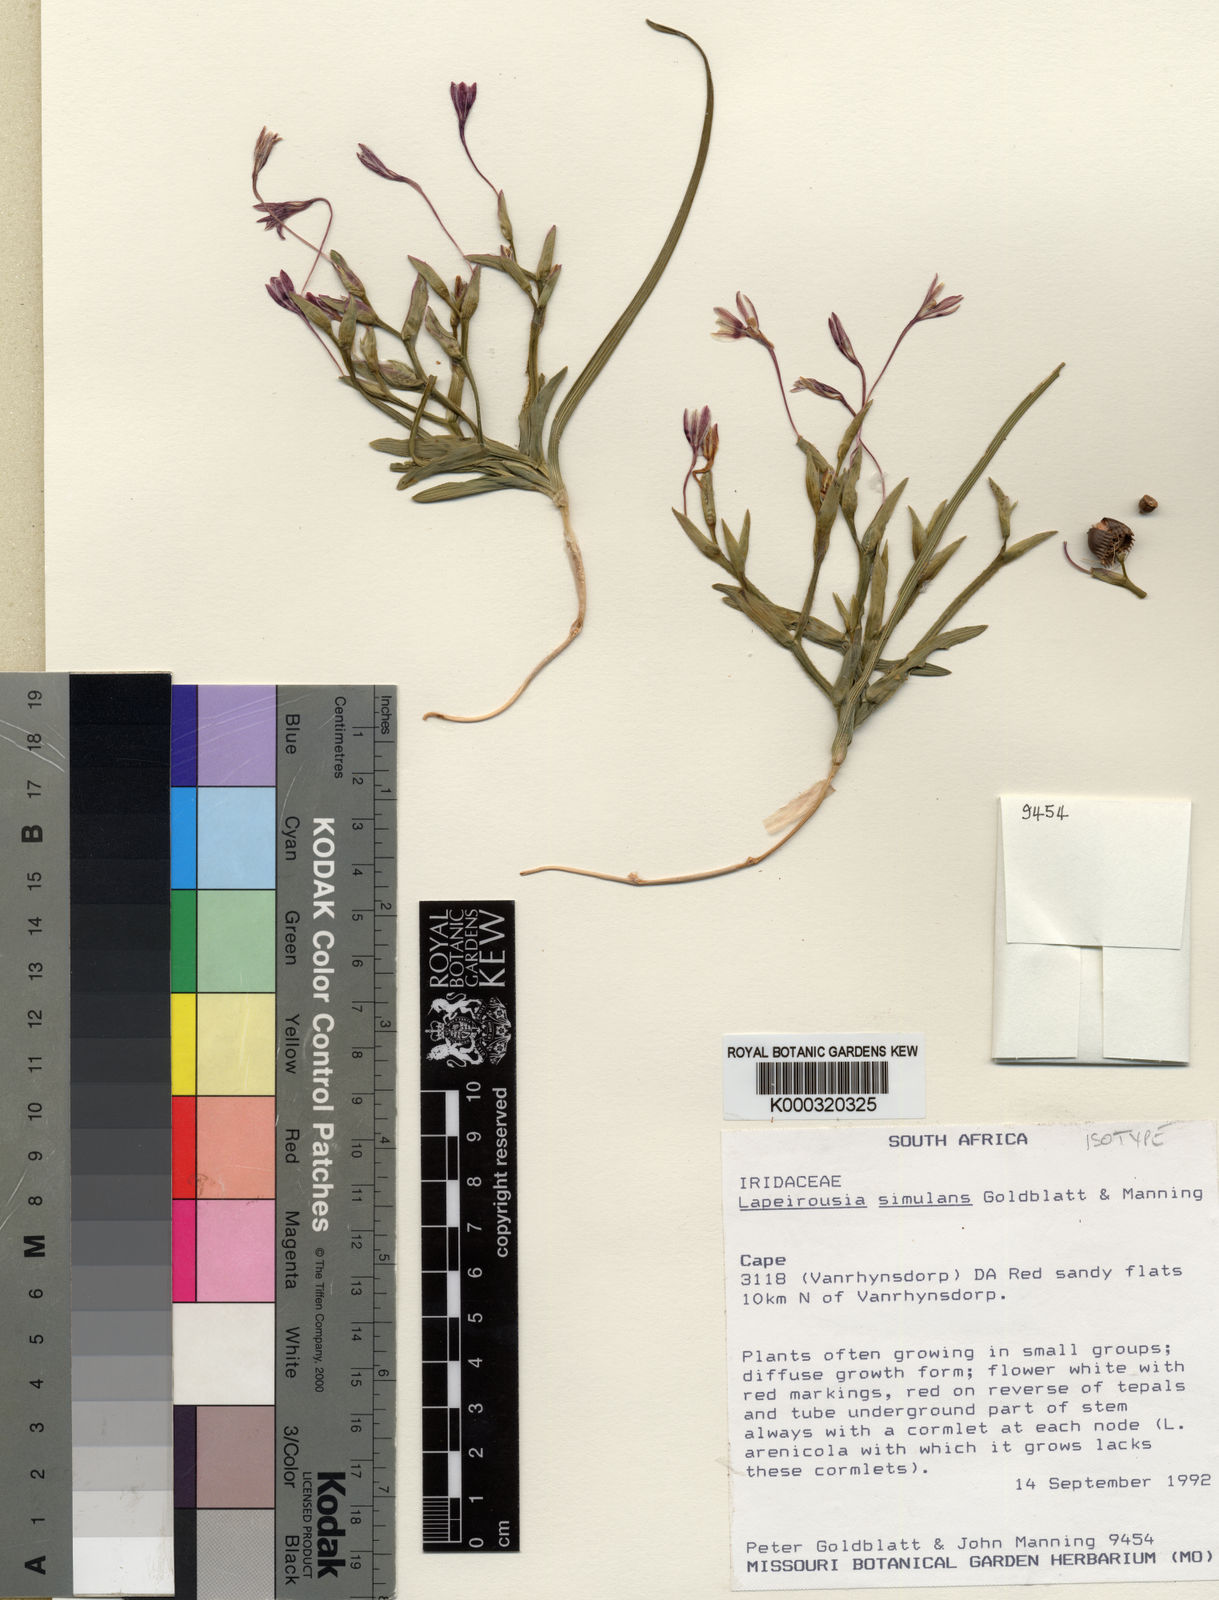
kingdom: Plantae
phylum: Tracheophyta
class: Liliopsida
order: Asparagales
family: Iridaceae
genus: Lapeirousia
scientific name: Lapeirousia simulans
